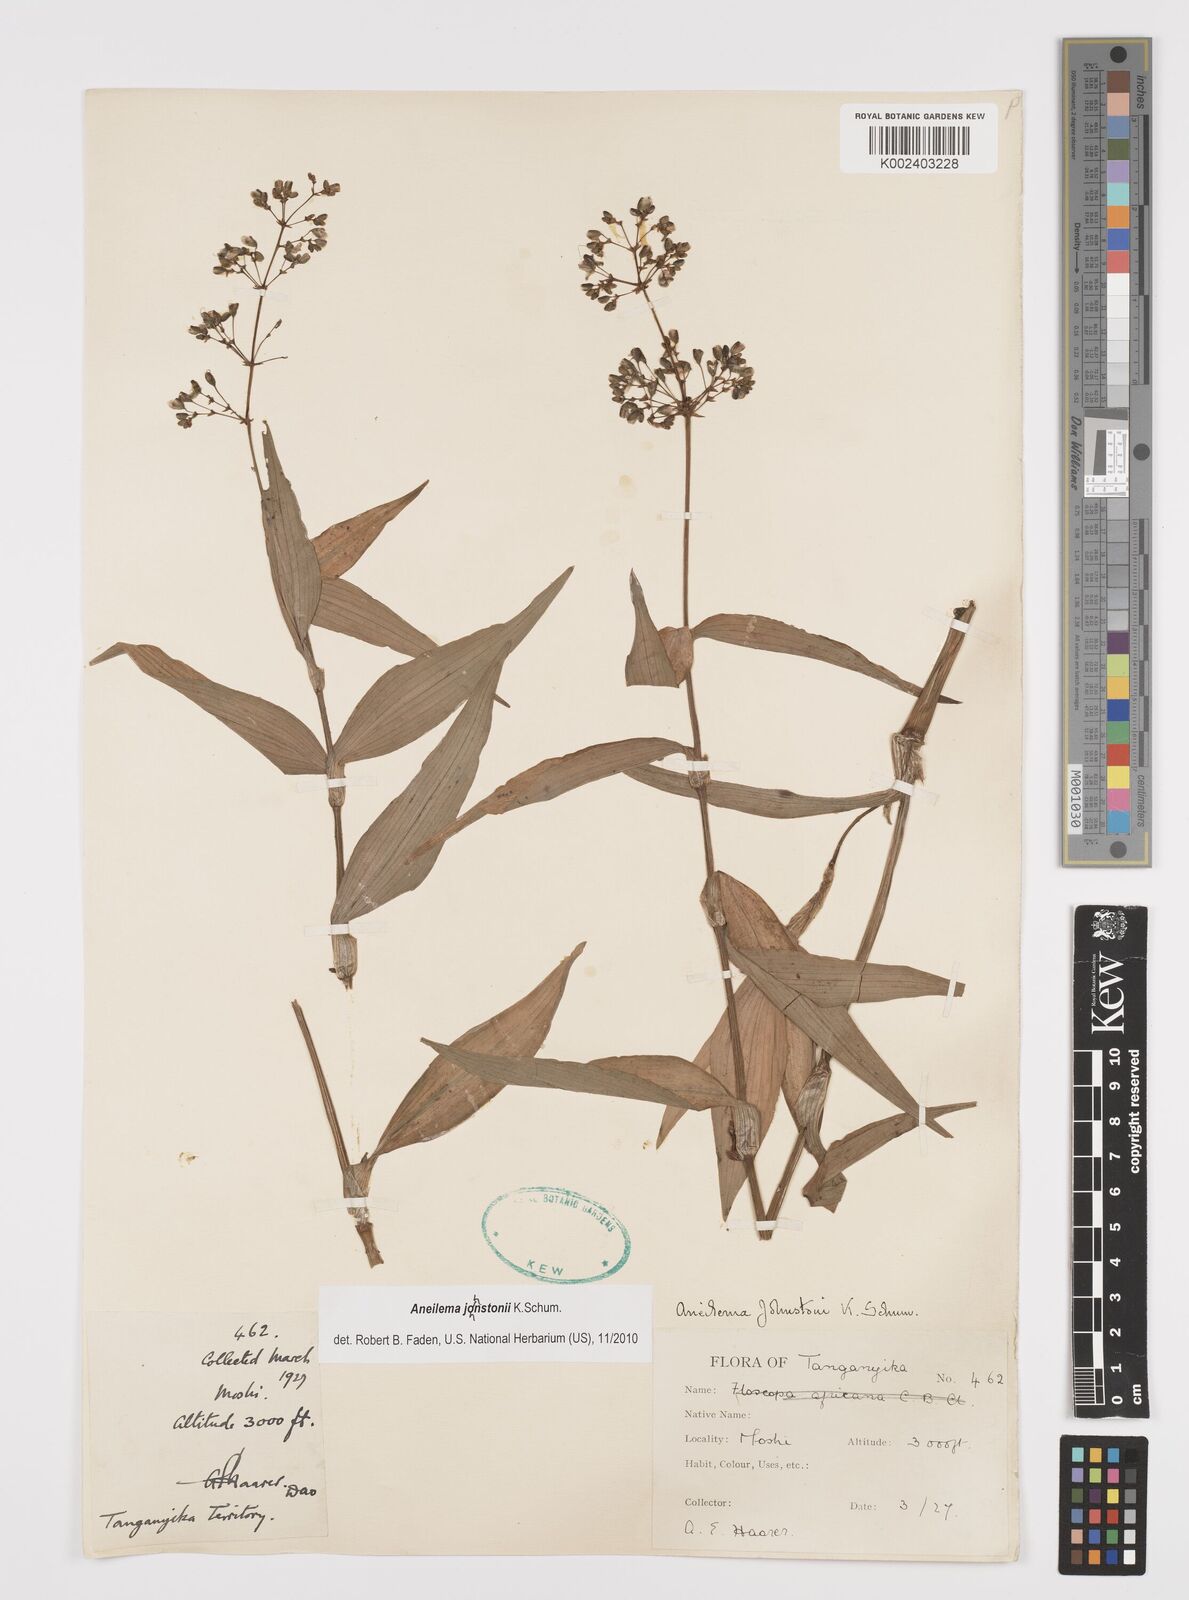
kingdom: Plantae
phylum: Tracheophyta
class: Liliopsida
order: Commelinales
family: Commelinaceae
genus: Aneilema
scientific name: Aneilema johnstonii
